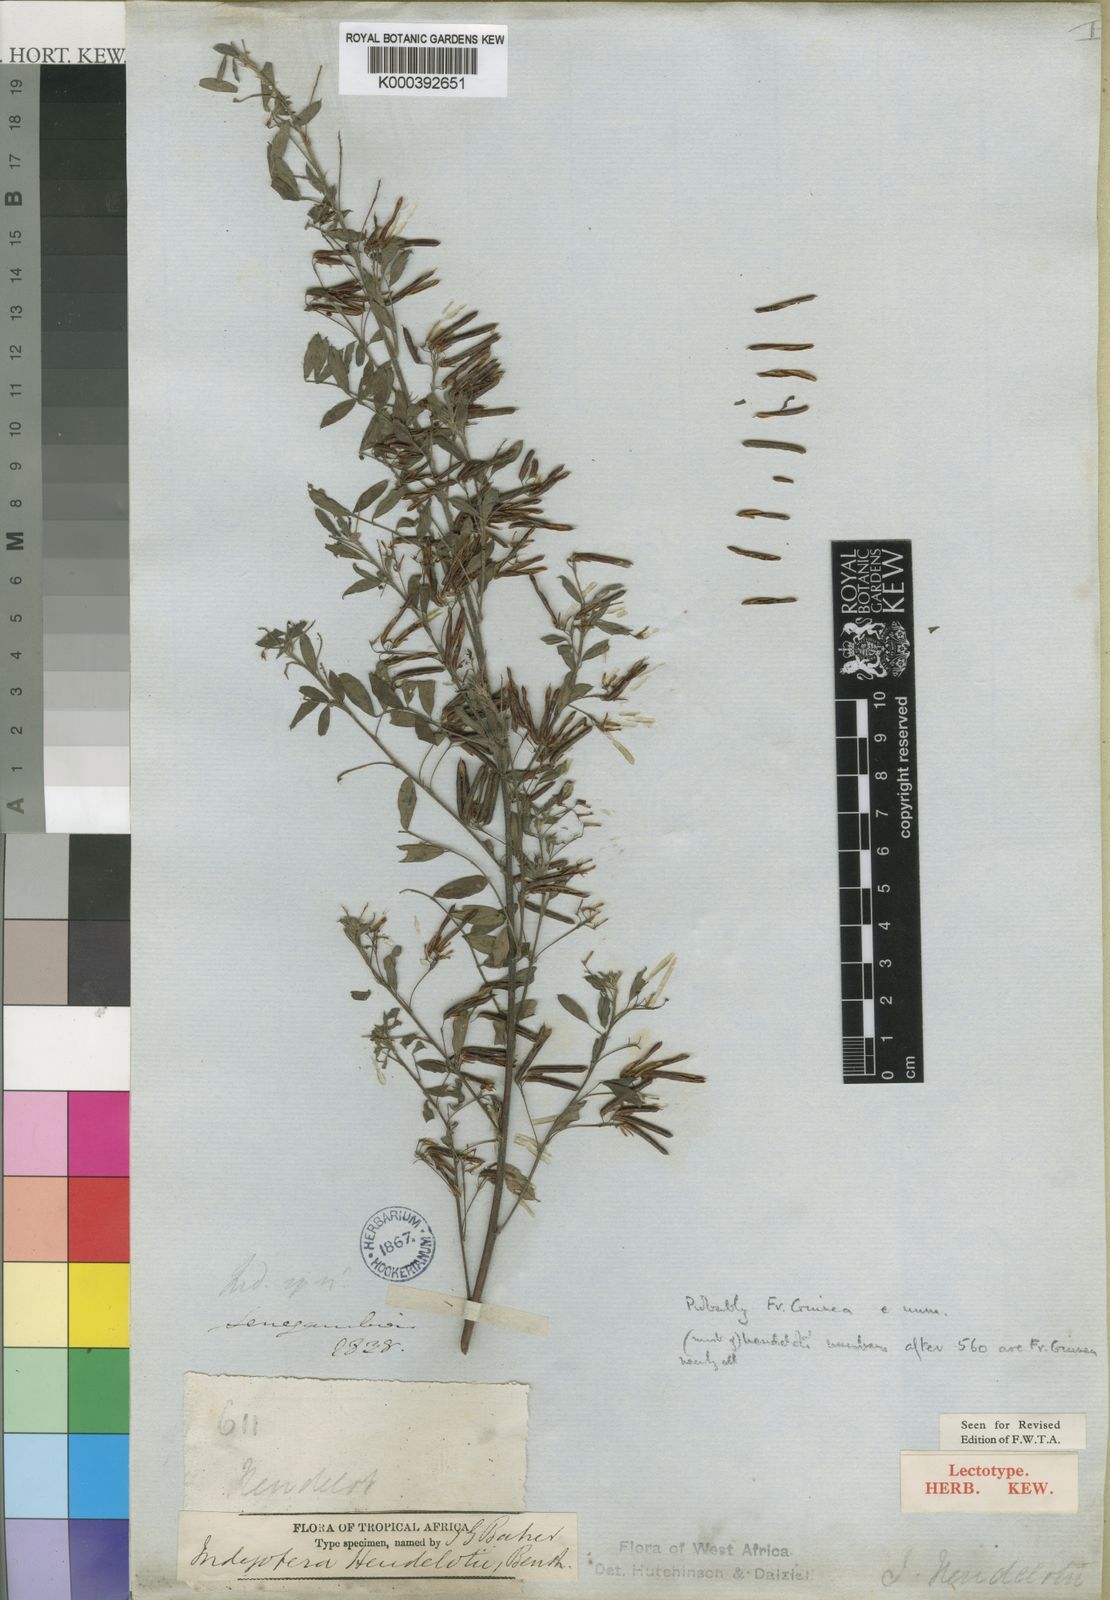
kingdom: Plantae
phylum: Tracheophyta
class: Magnoliopsida
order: Fabales
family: Fabaceae
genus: Indigofera
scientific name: Indigofera heudelotii
